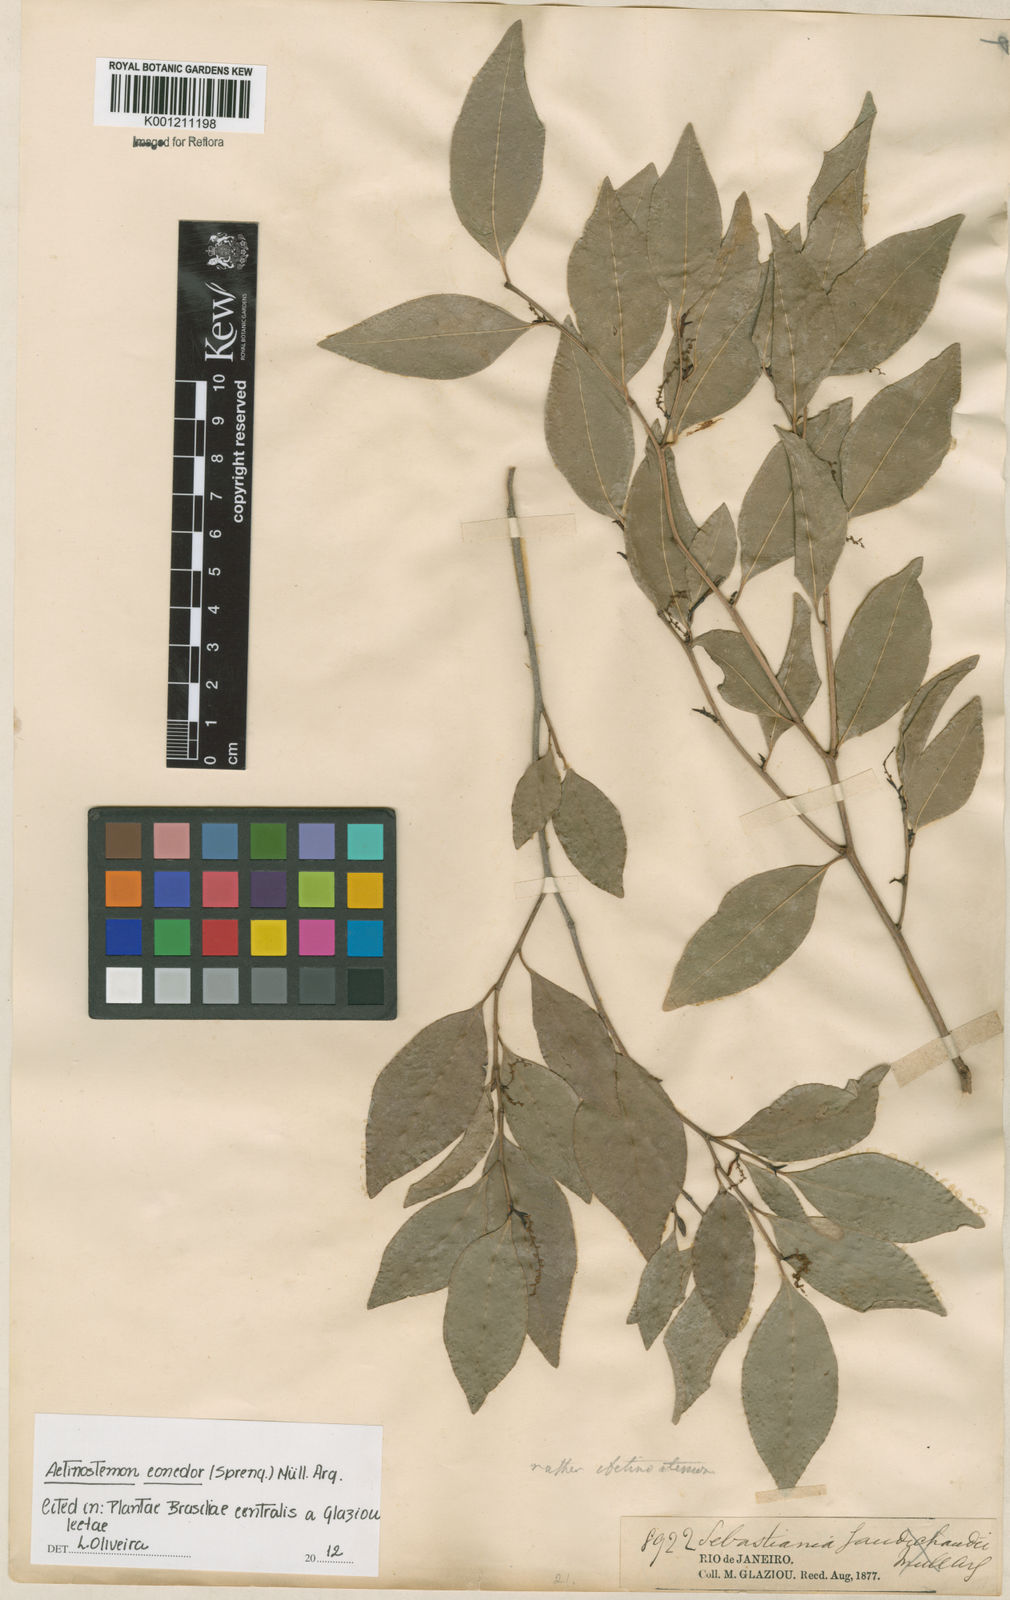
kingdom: Plantae
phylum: Tracheophyta
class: Magnoliopsida
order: Malpighiales
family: Euphorbiaceae
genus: Actinostemon
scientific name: Actinostemon
